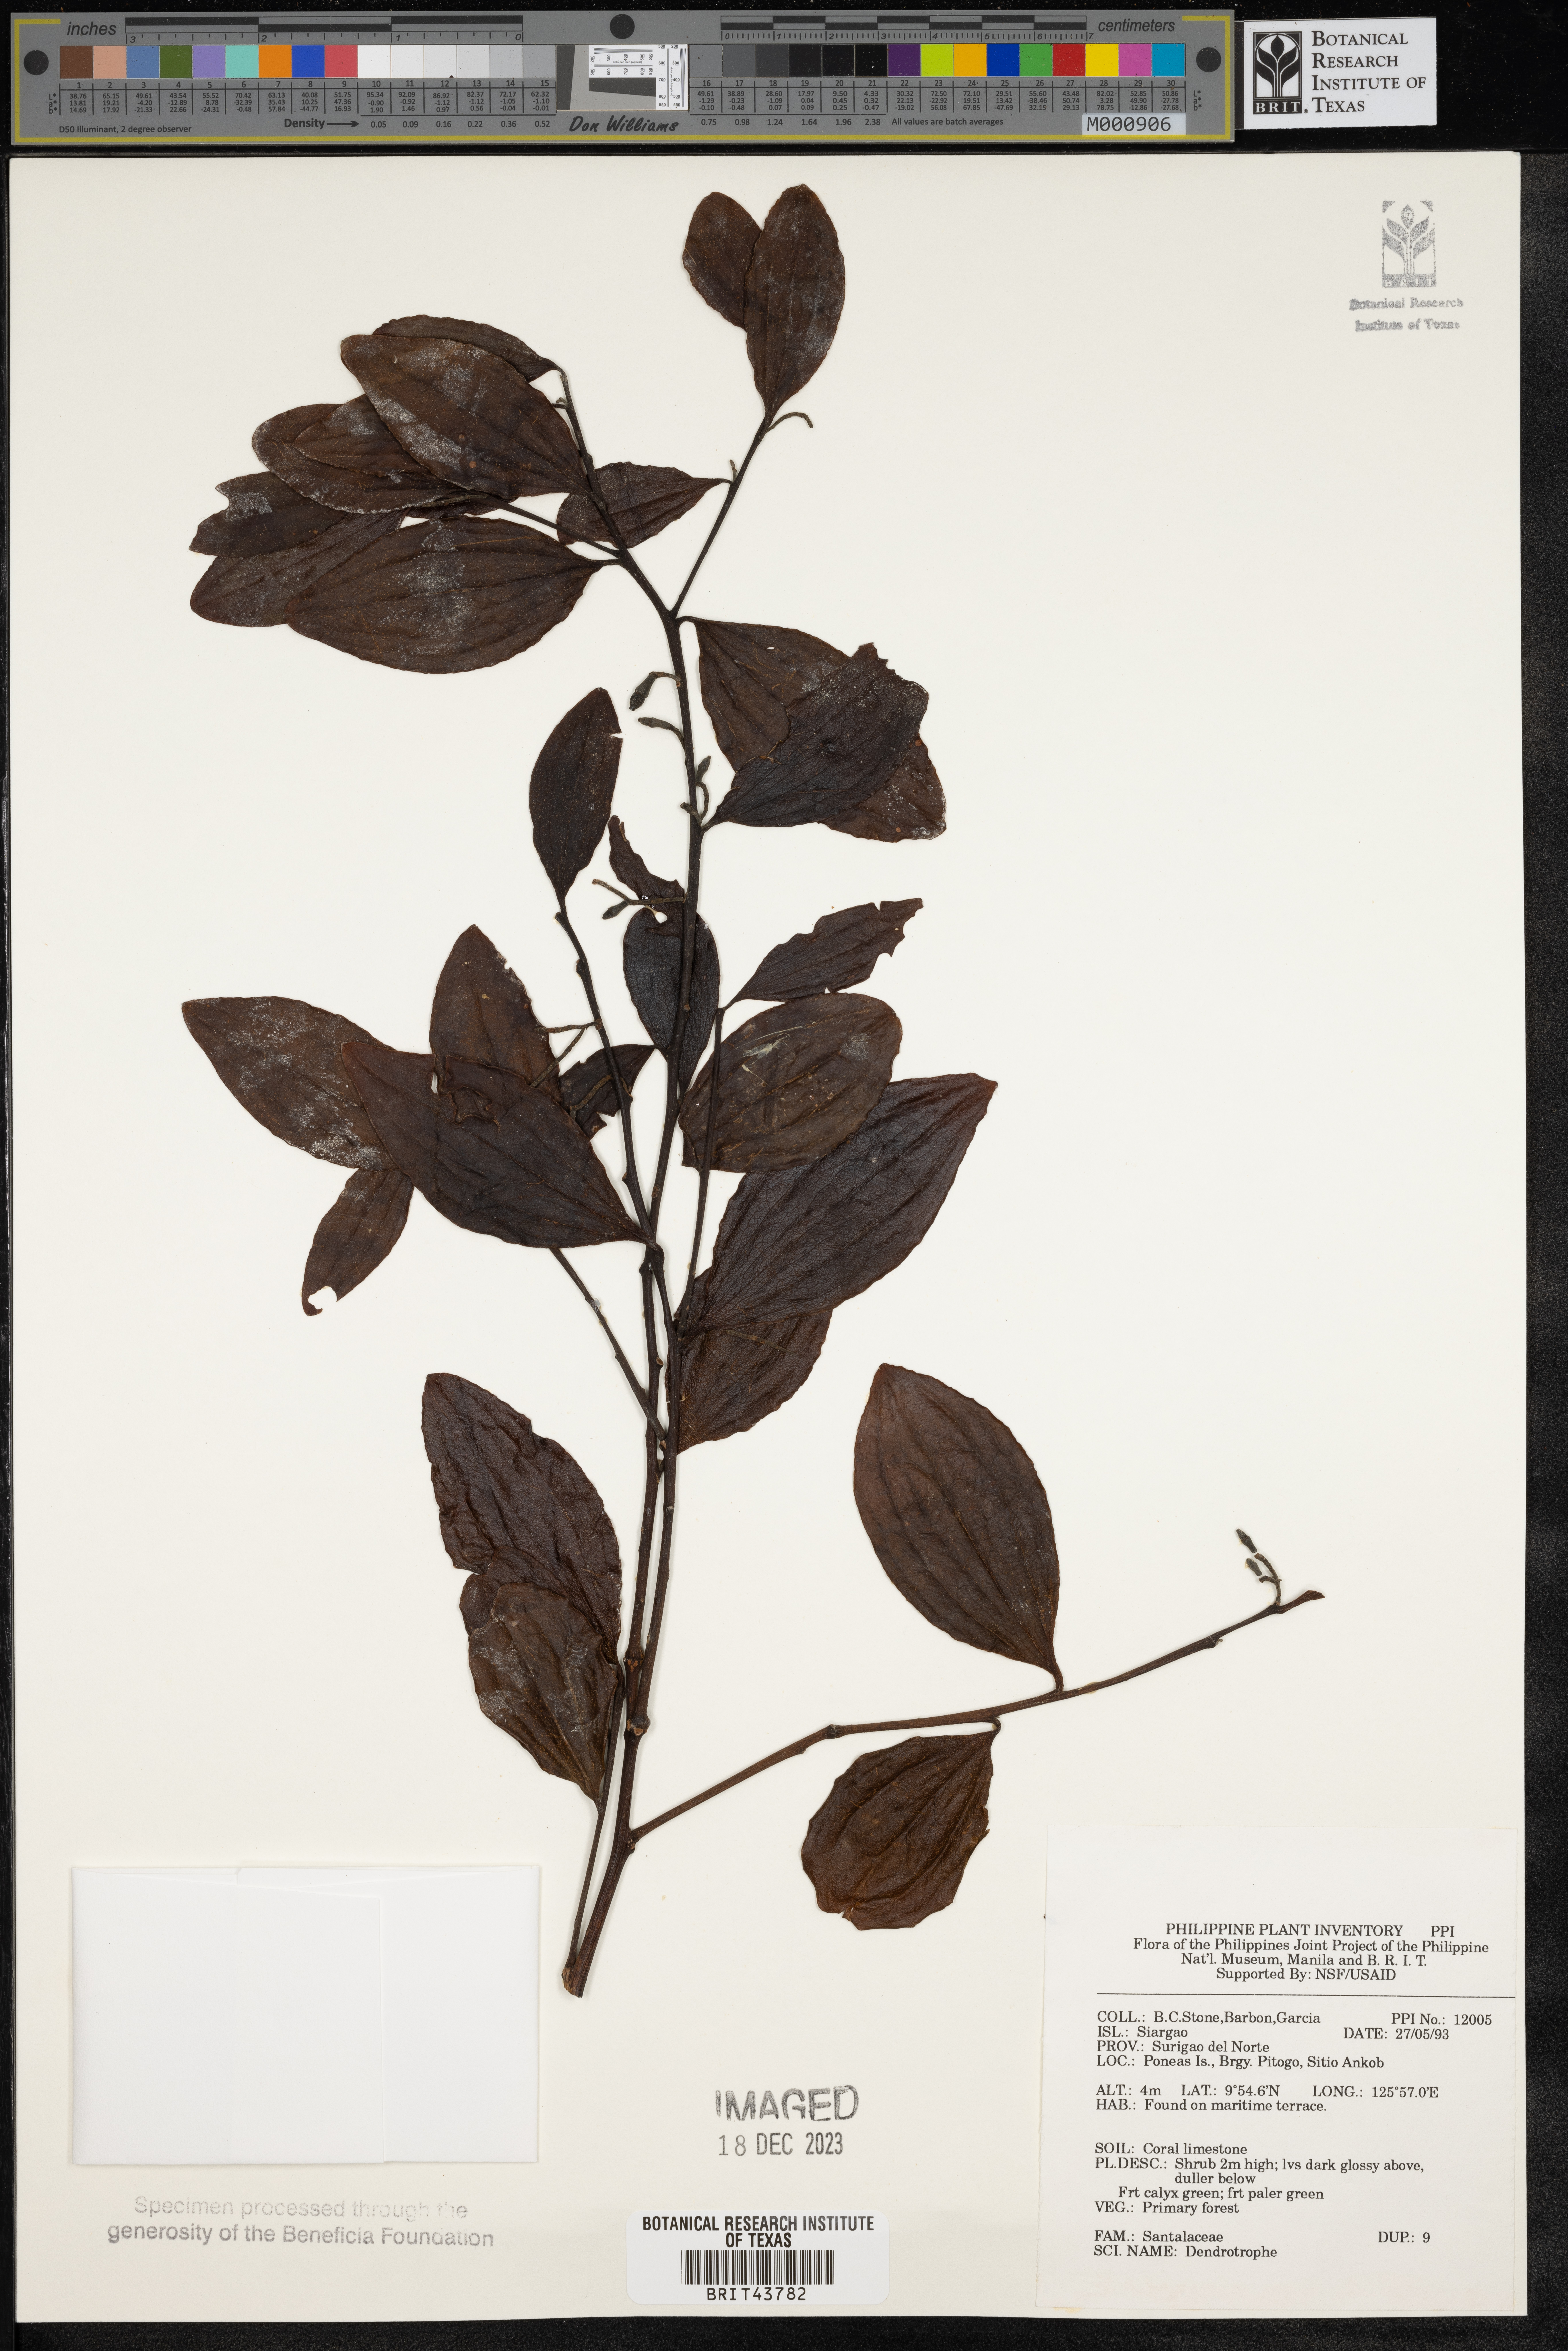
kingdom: Plantae
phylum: Tracheophyta
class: Magnoliopsida
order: Santalales
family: Amphorogynaceae
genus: Dendrotrophe
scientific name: Dendrotrophe
